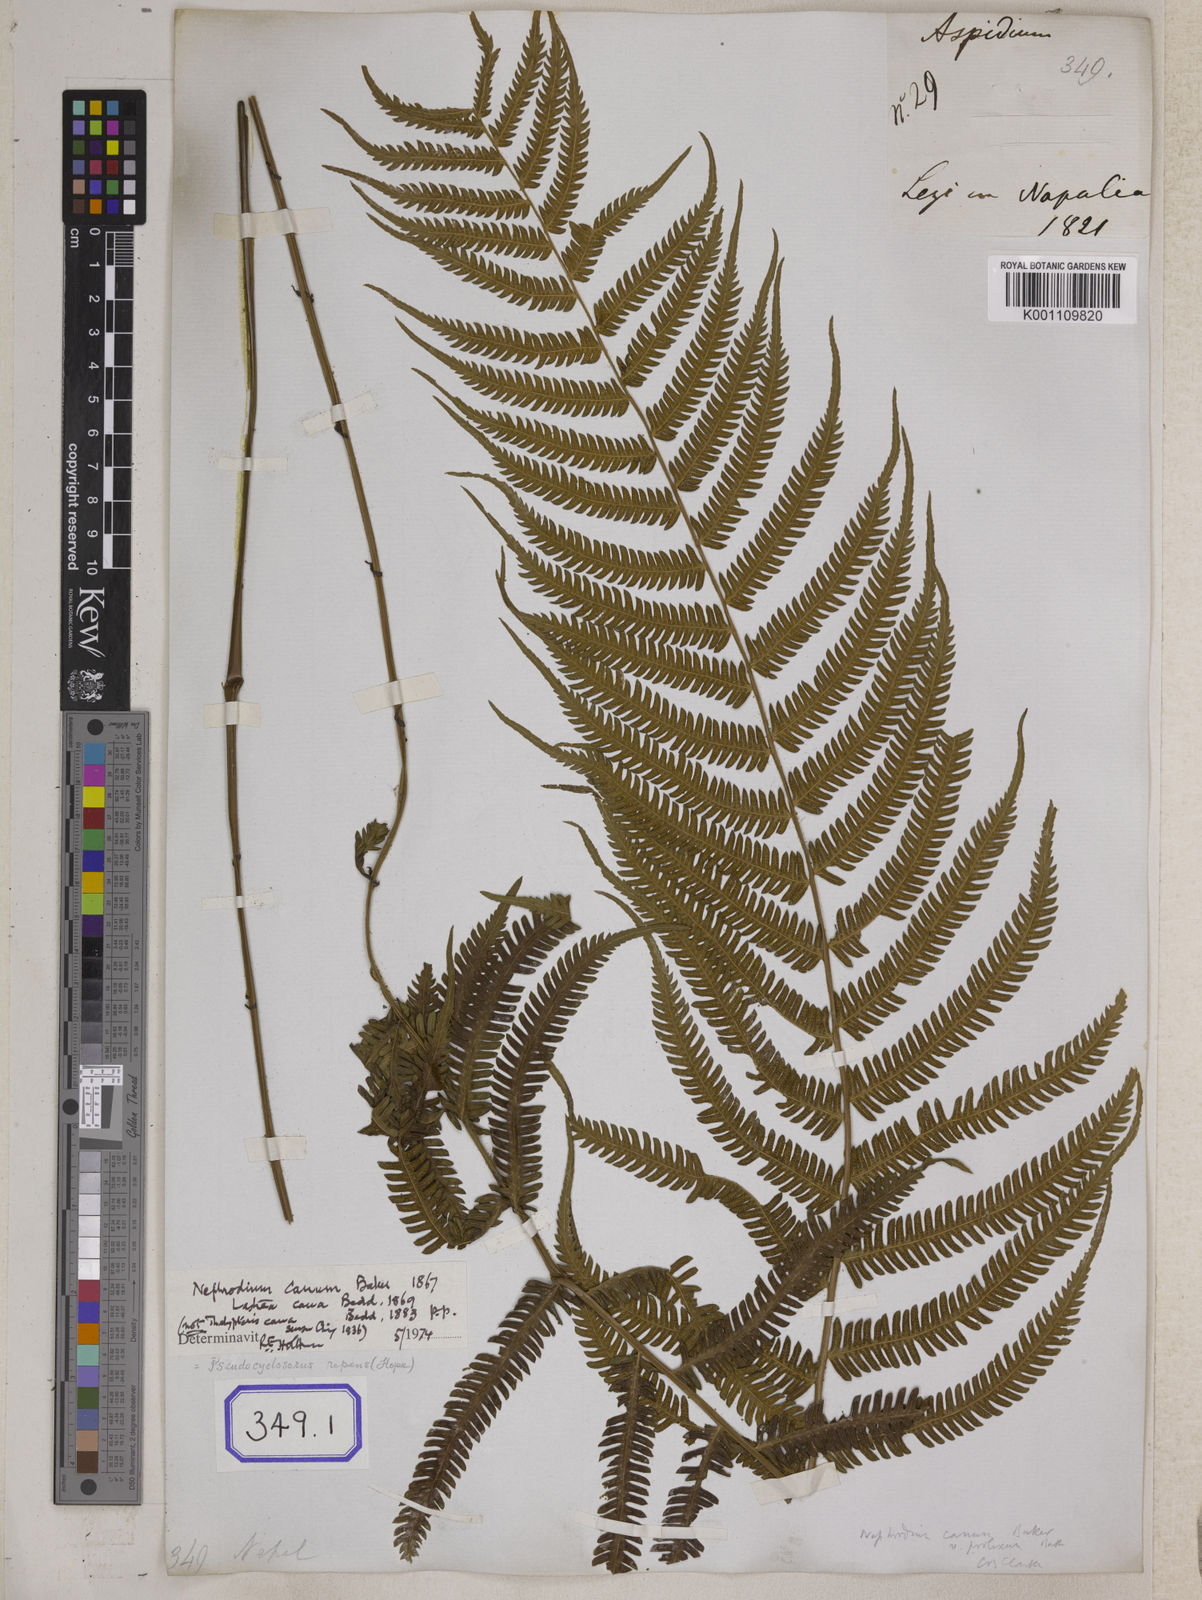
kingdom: Plantae
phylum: Tracheophyta
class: Polypodiopsida
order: Polypodiales
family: Thelypteridaceae
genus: Christella
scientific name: Christella procera
